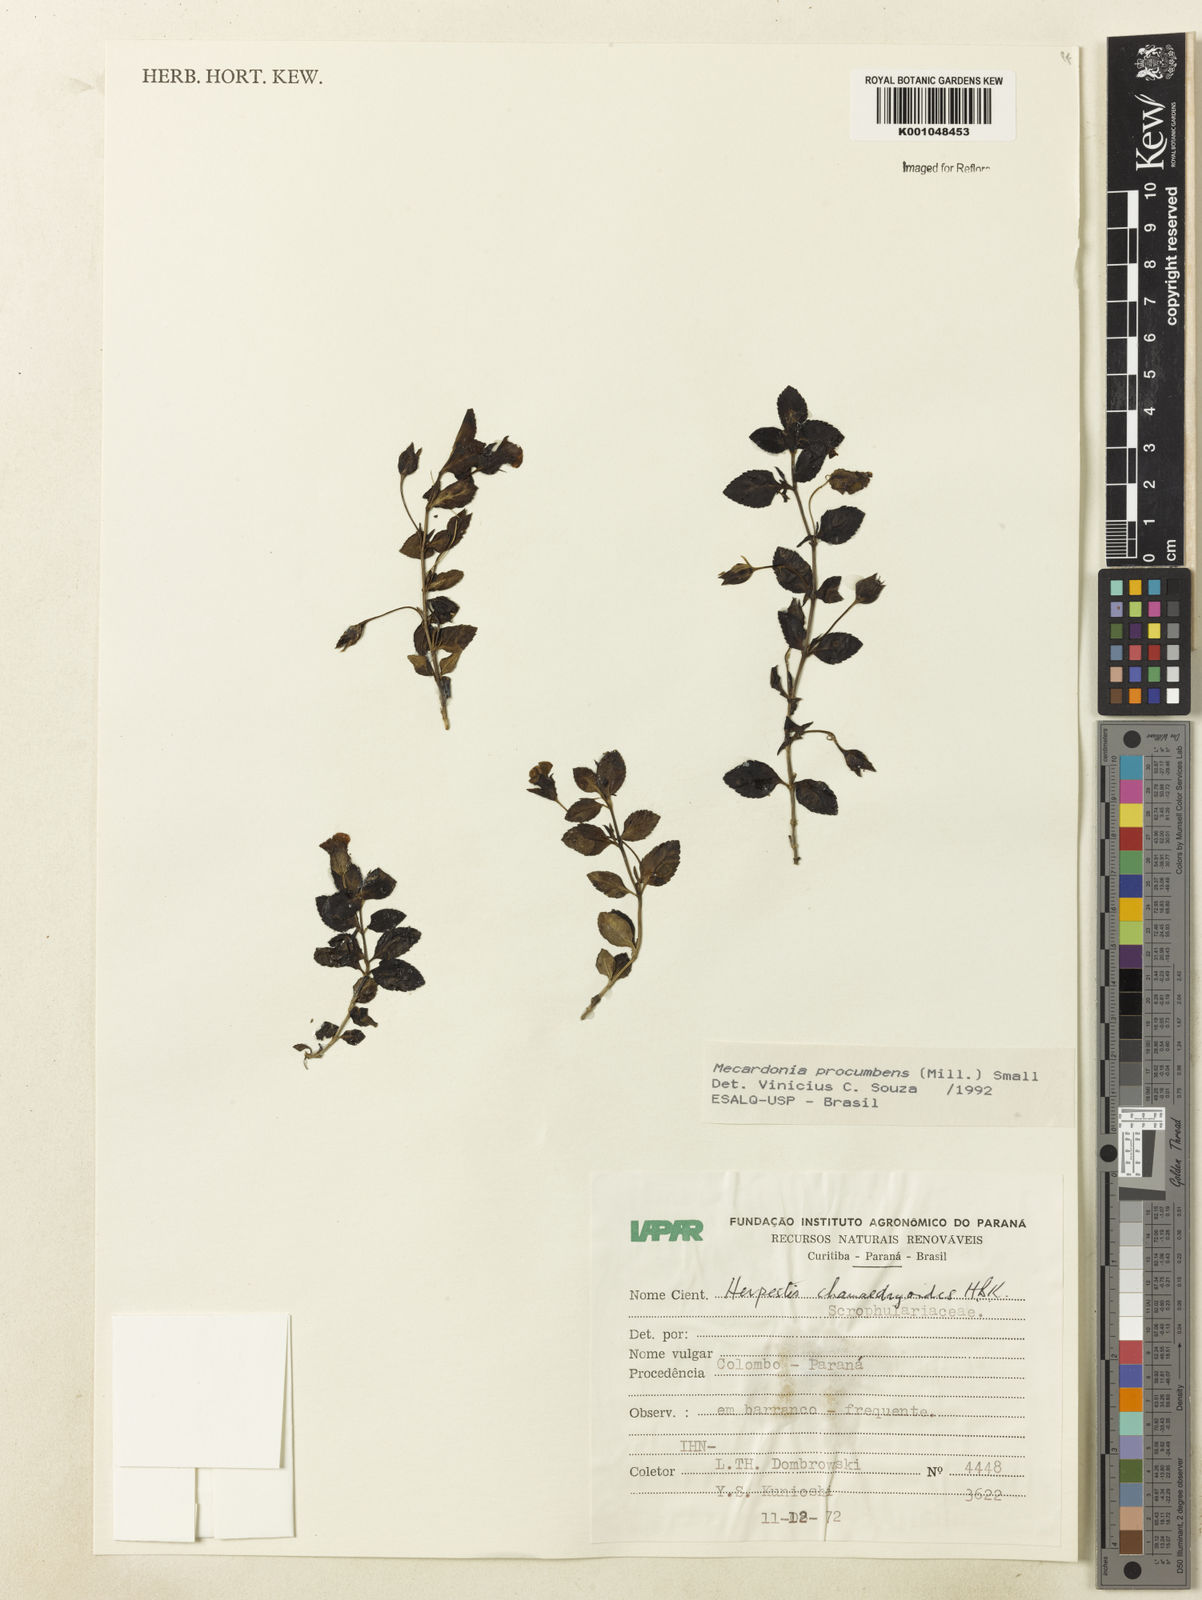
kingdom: Plantae
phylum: Tracheophyta
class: Magnoliopsida
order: Lamiales
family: Plantaginaceae
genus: Mecardonia
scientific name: Mecardonia procumbens
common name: Baby jump-up
